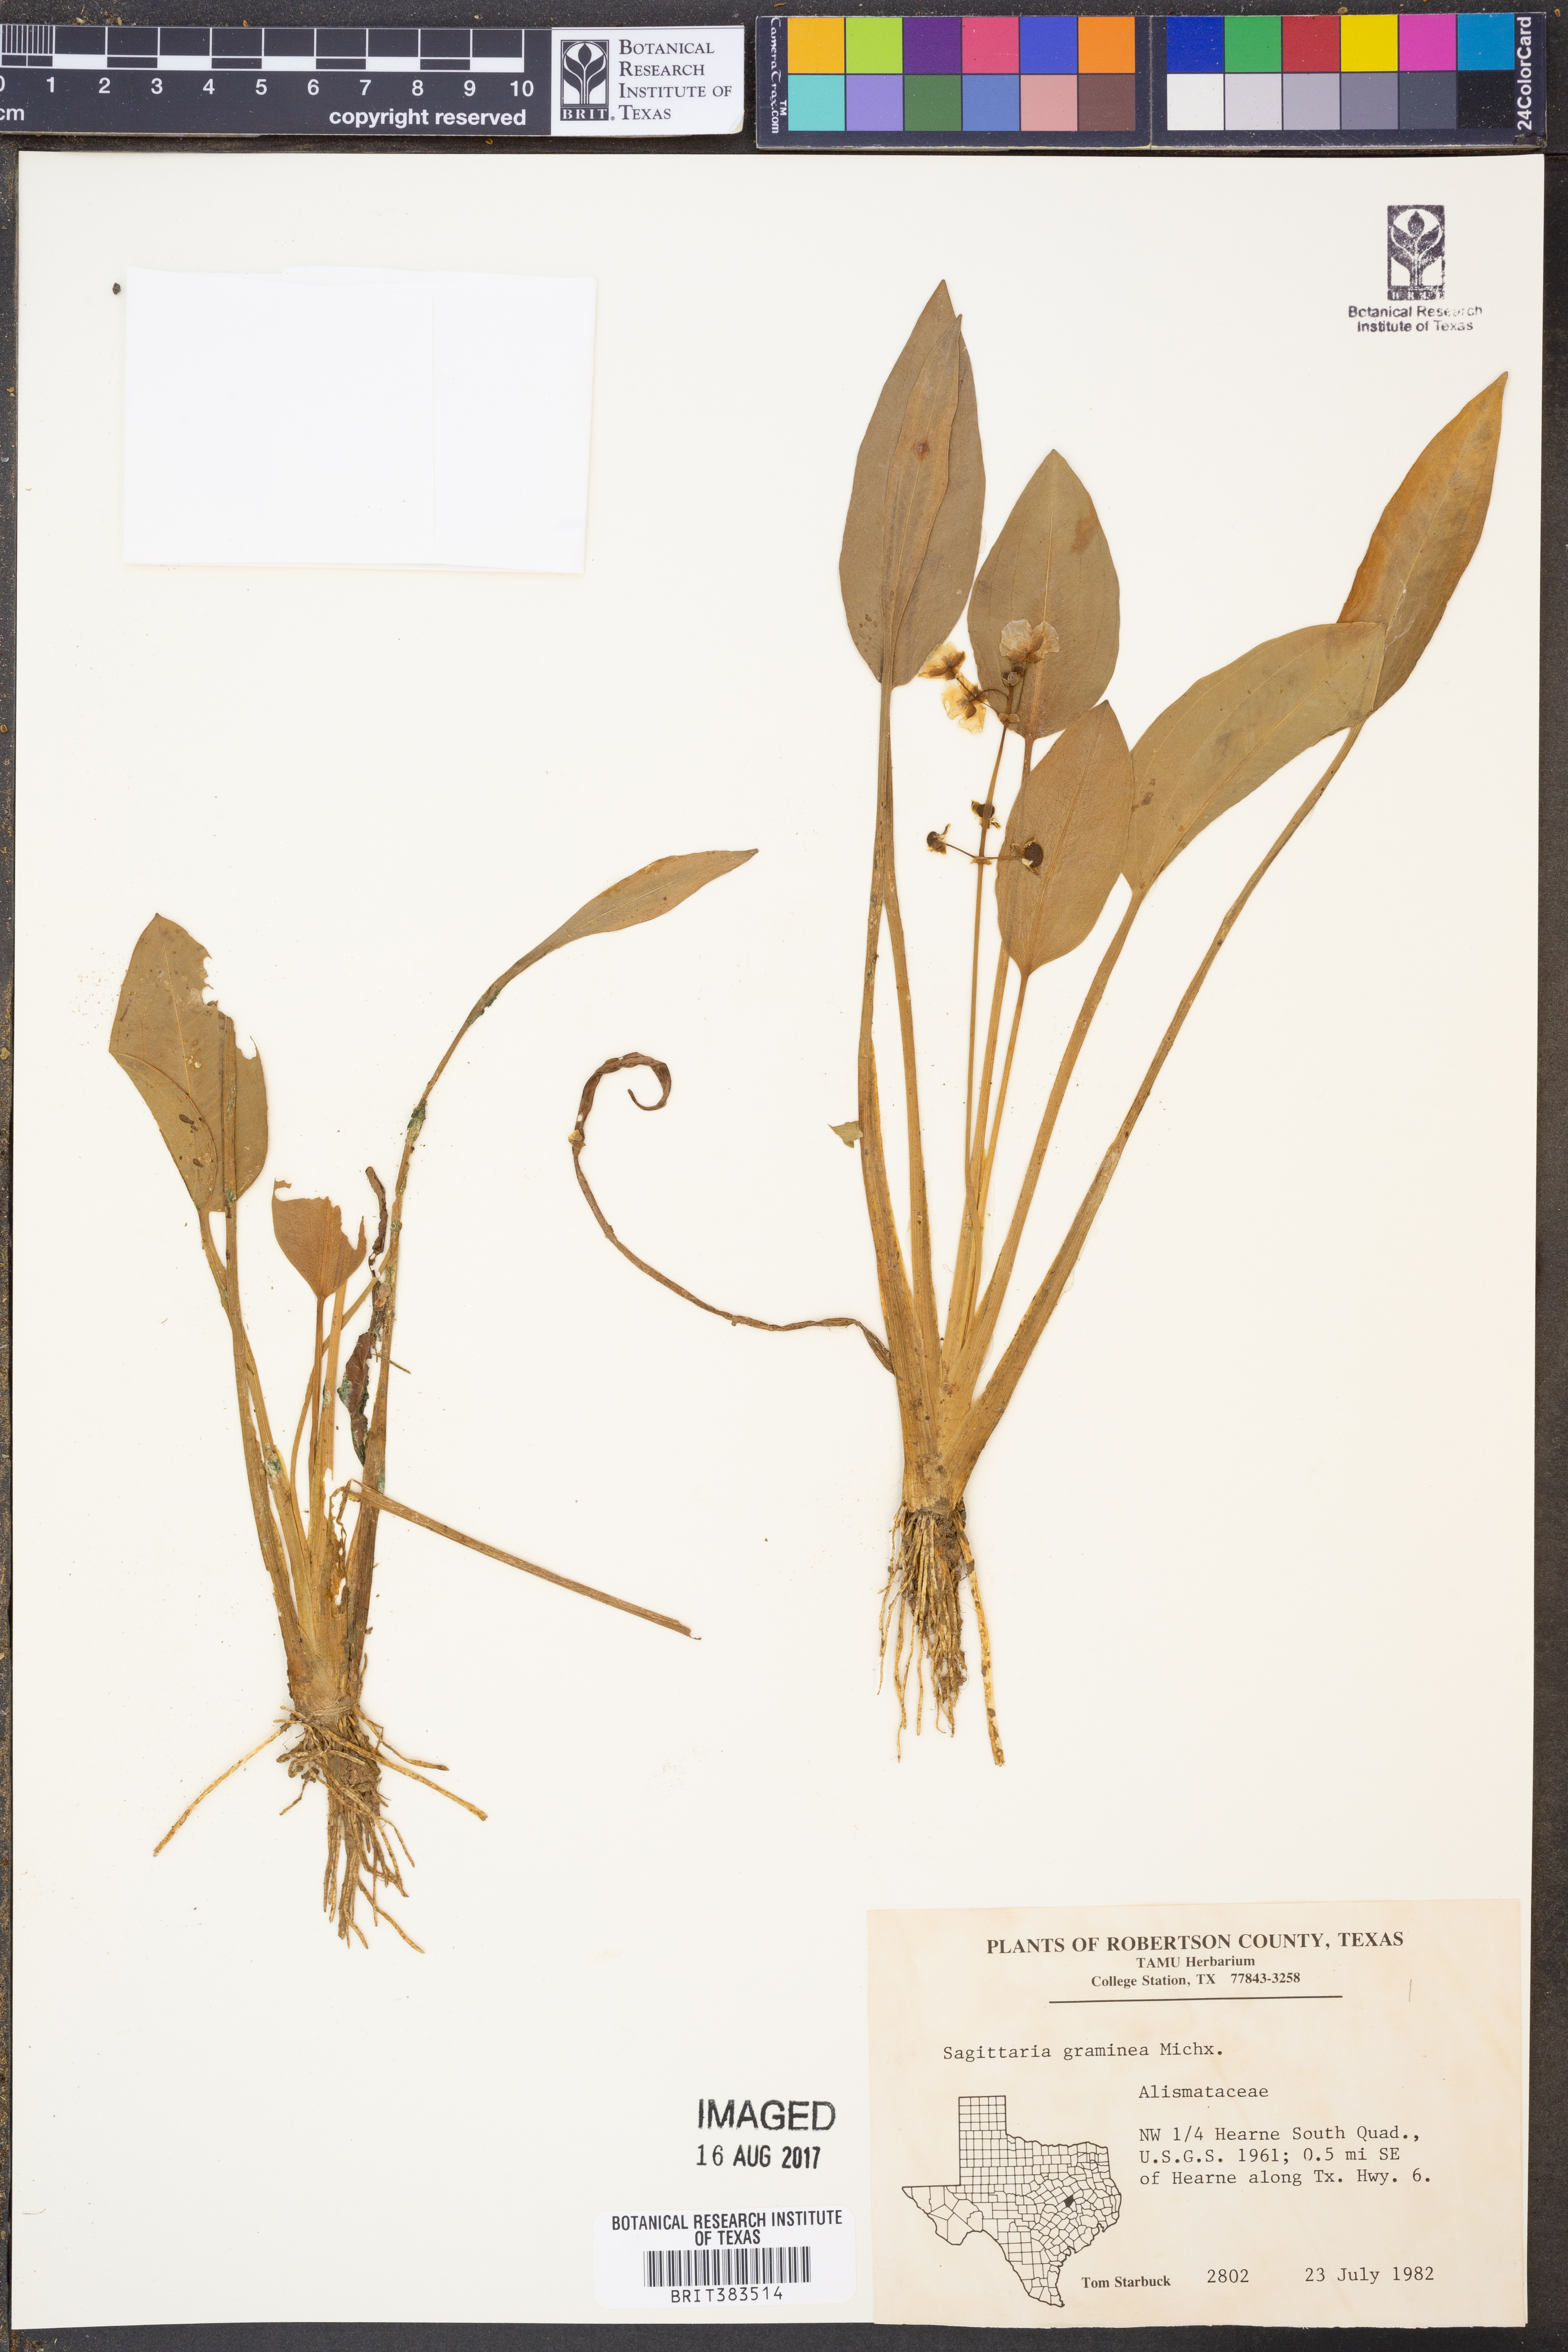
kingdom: Plantae
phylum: Tracheophyta
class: Liliopsida
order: Alismatales
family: Alismataceae
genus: Sagittaria
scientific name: Sagittaria graminea
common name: Grass-leaved arrowhead
